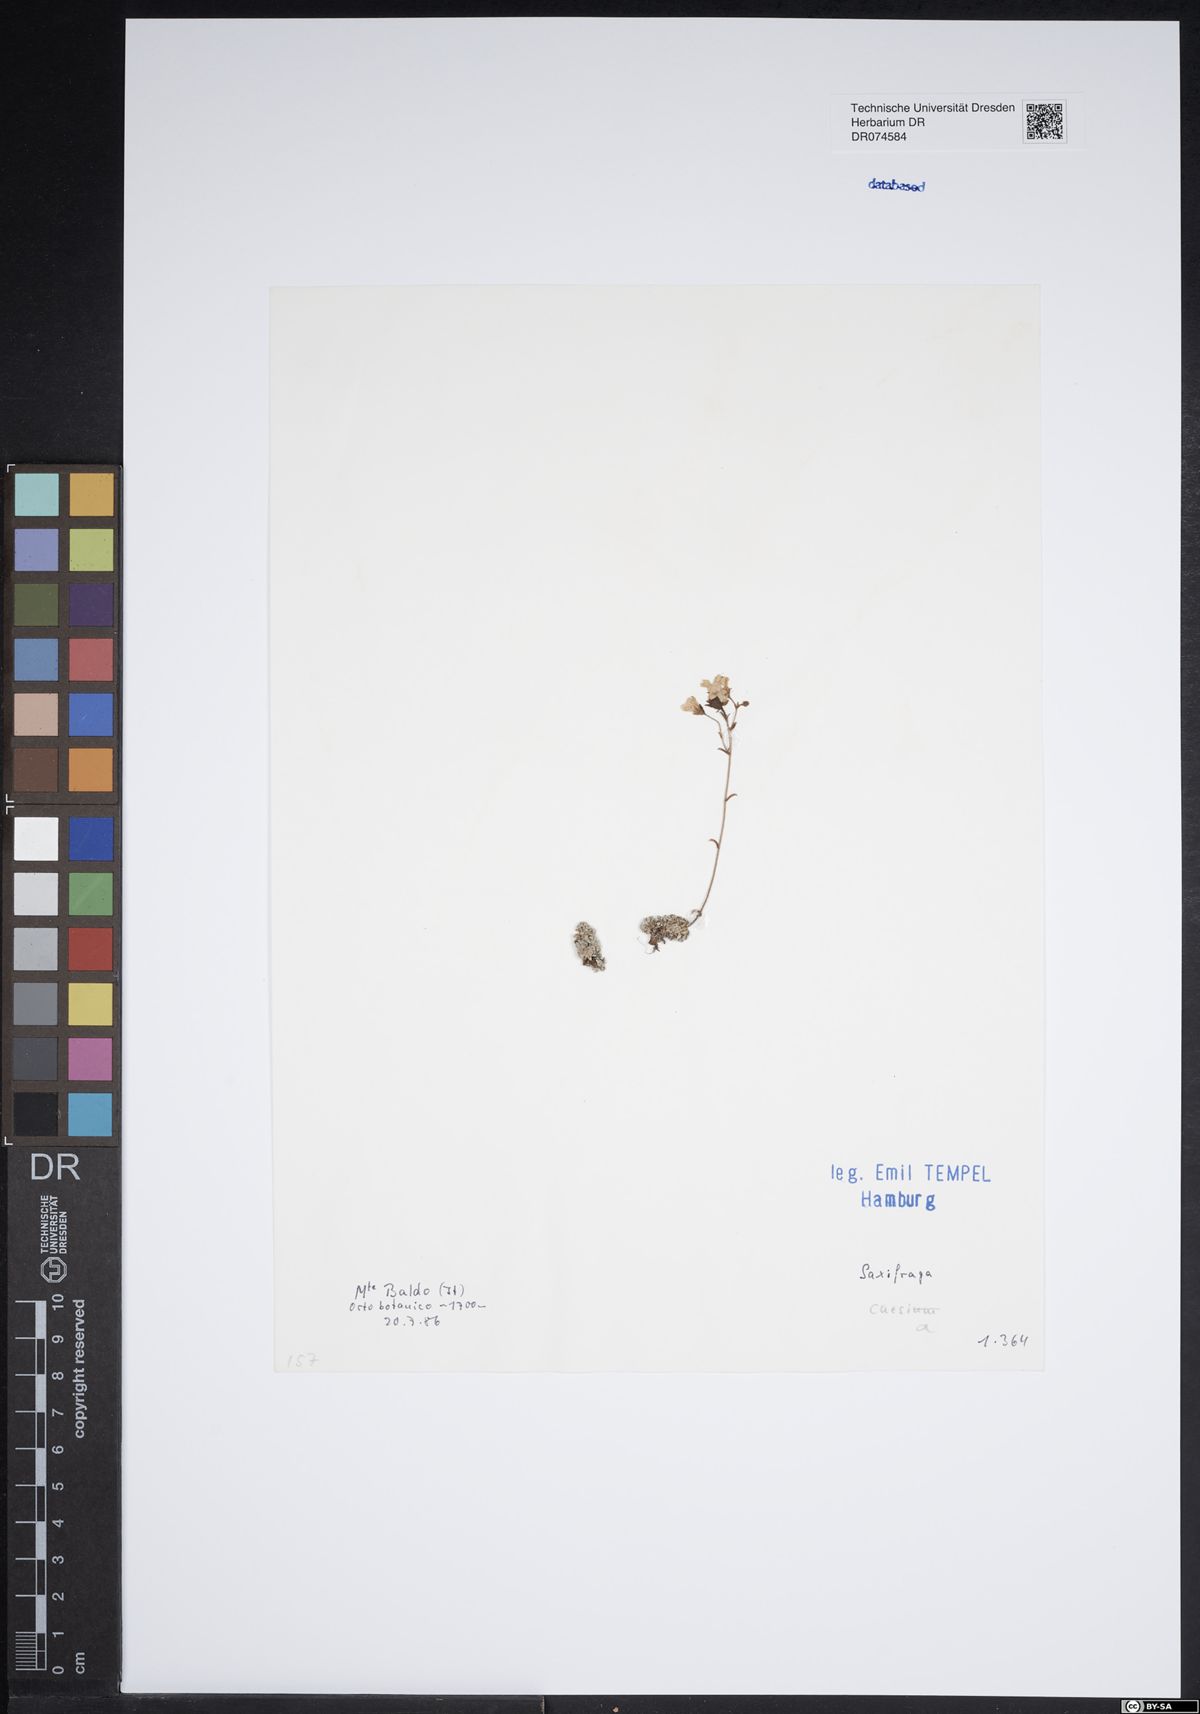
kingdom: Plantae
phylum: Tracheophyta
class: Magnoliopsida
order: Saxifragales
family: Saxifragaceae
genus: Saxifraga
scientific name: Saxifraga caesia
